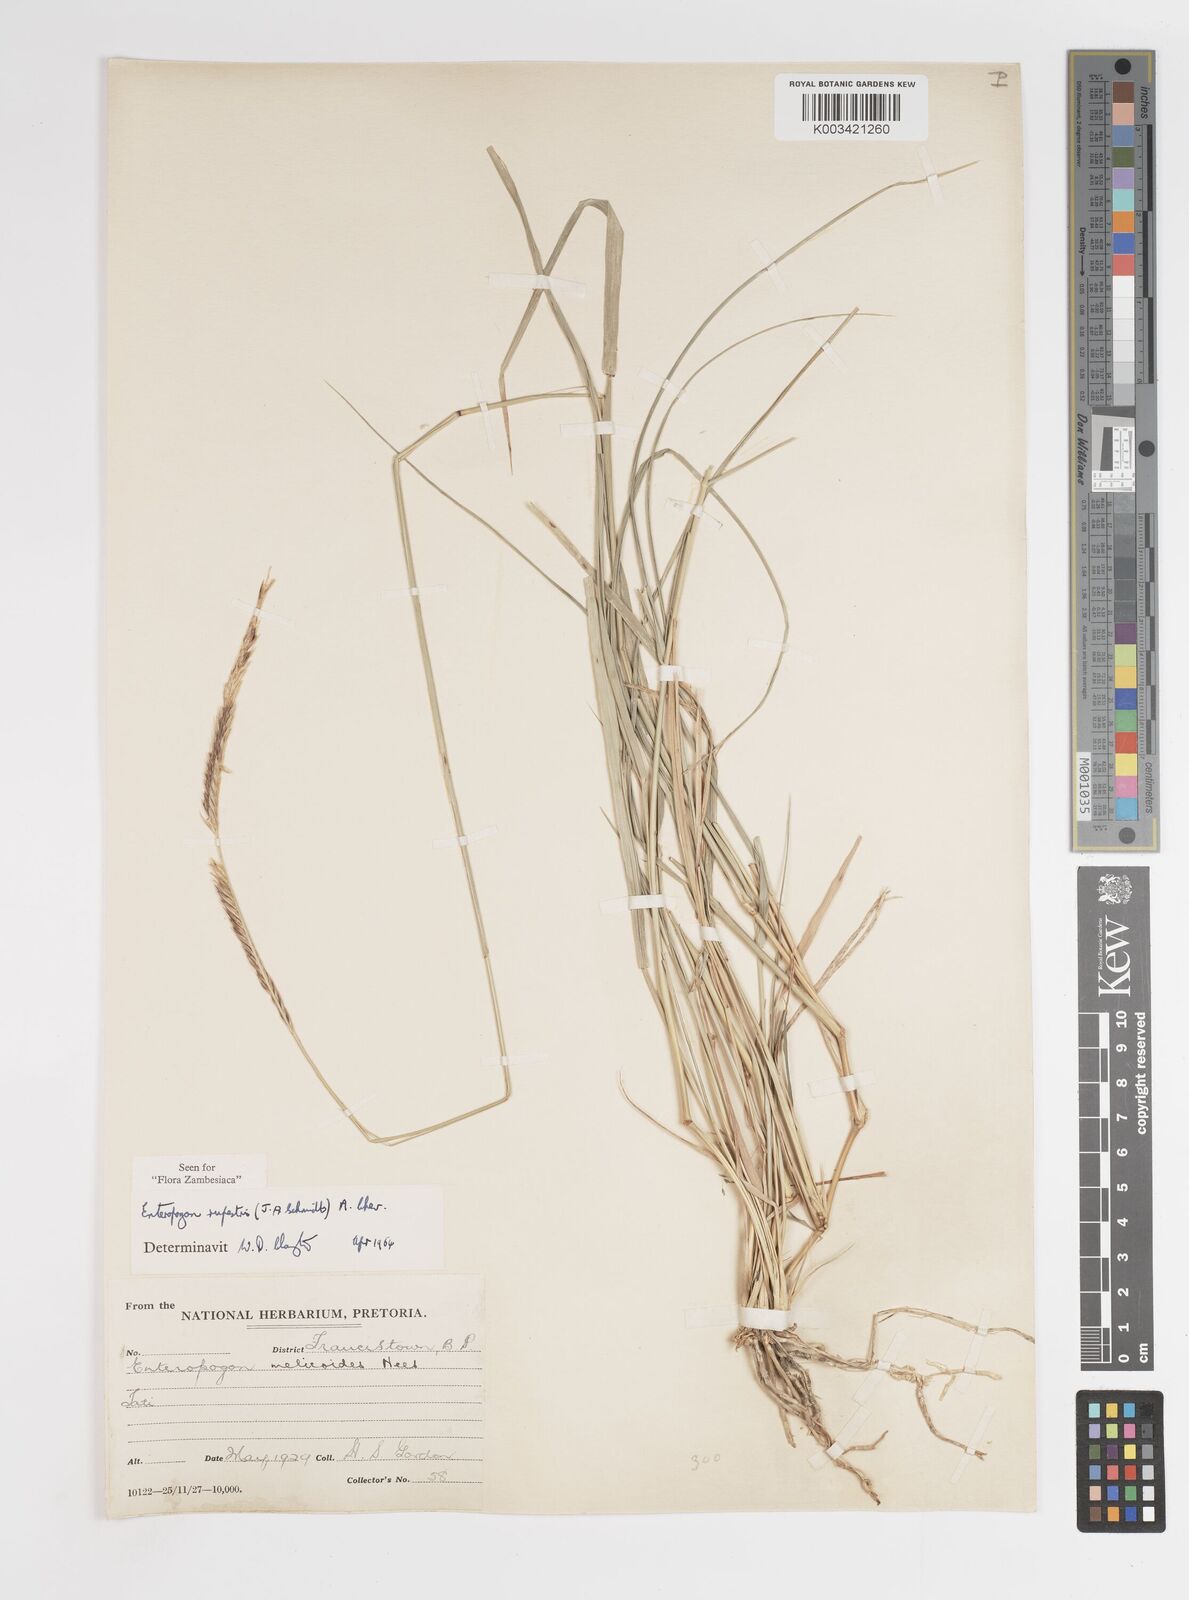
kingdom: Plantae
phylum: Tracheophyta
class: Liliopsida
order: Poales
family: Poaceae
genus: Enteropogon
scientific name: Enteropogon rupestris
